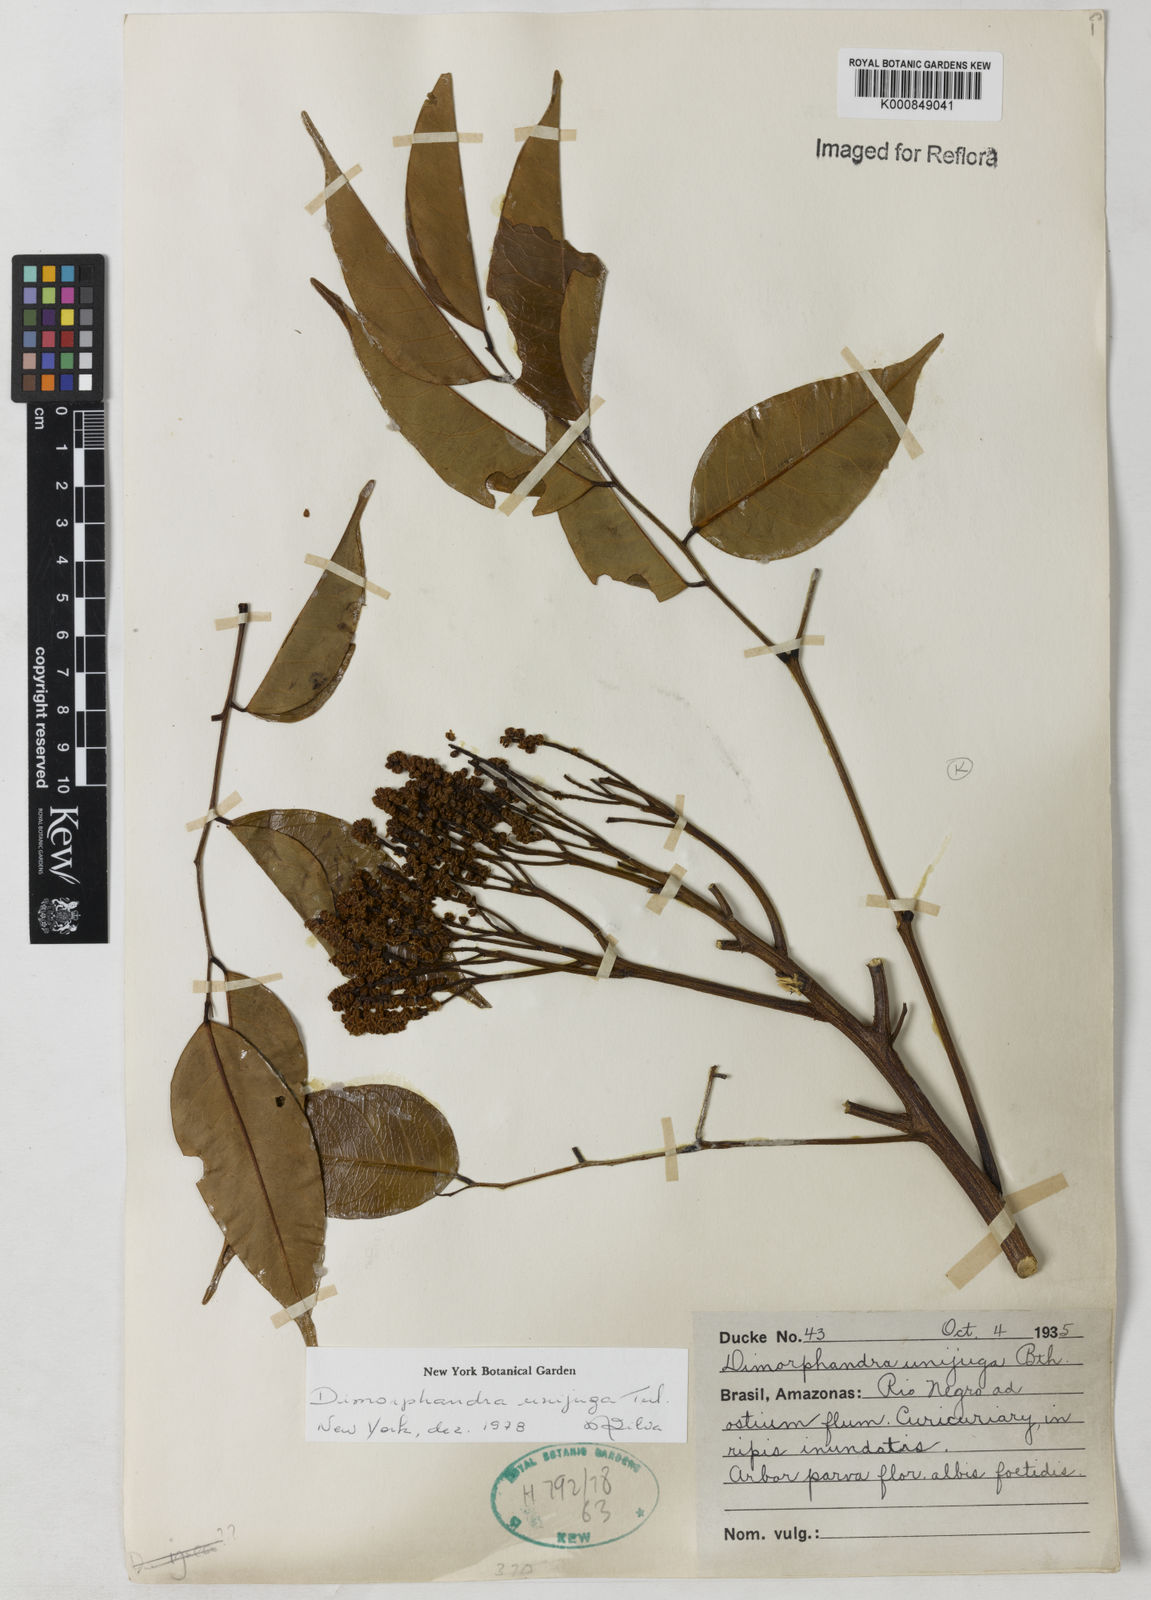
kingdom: Plantae
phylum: Tracheophyta
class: Magnoliopsida
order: Fabales
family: Fabaceae
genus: Dimorphandra
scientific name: Dimorphandra unijuga
